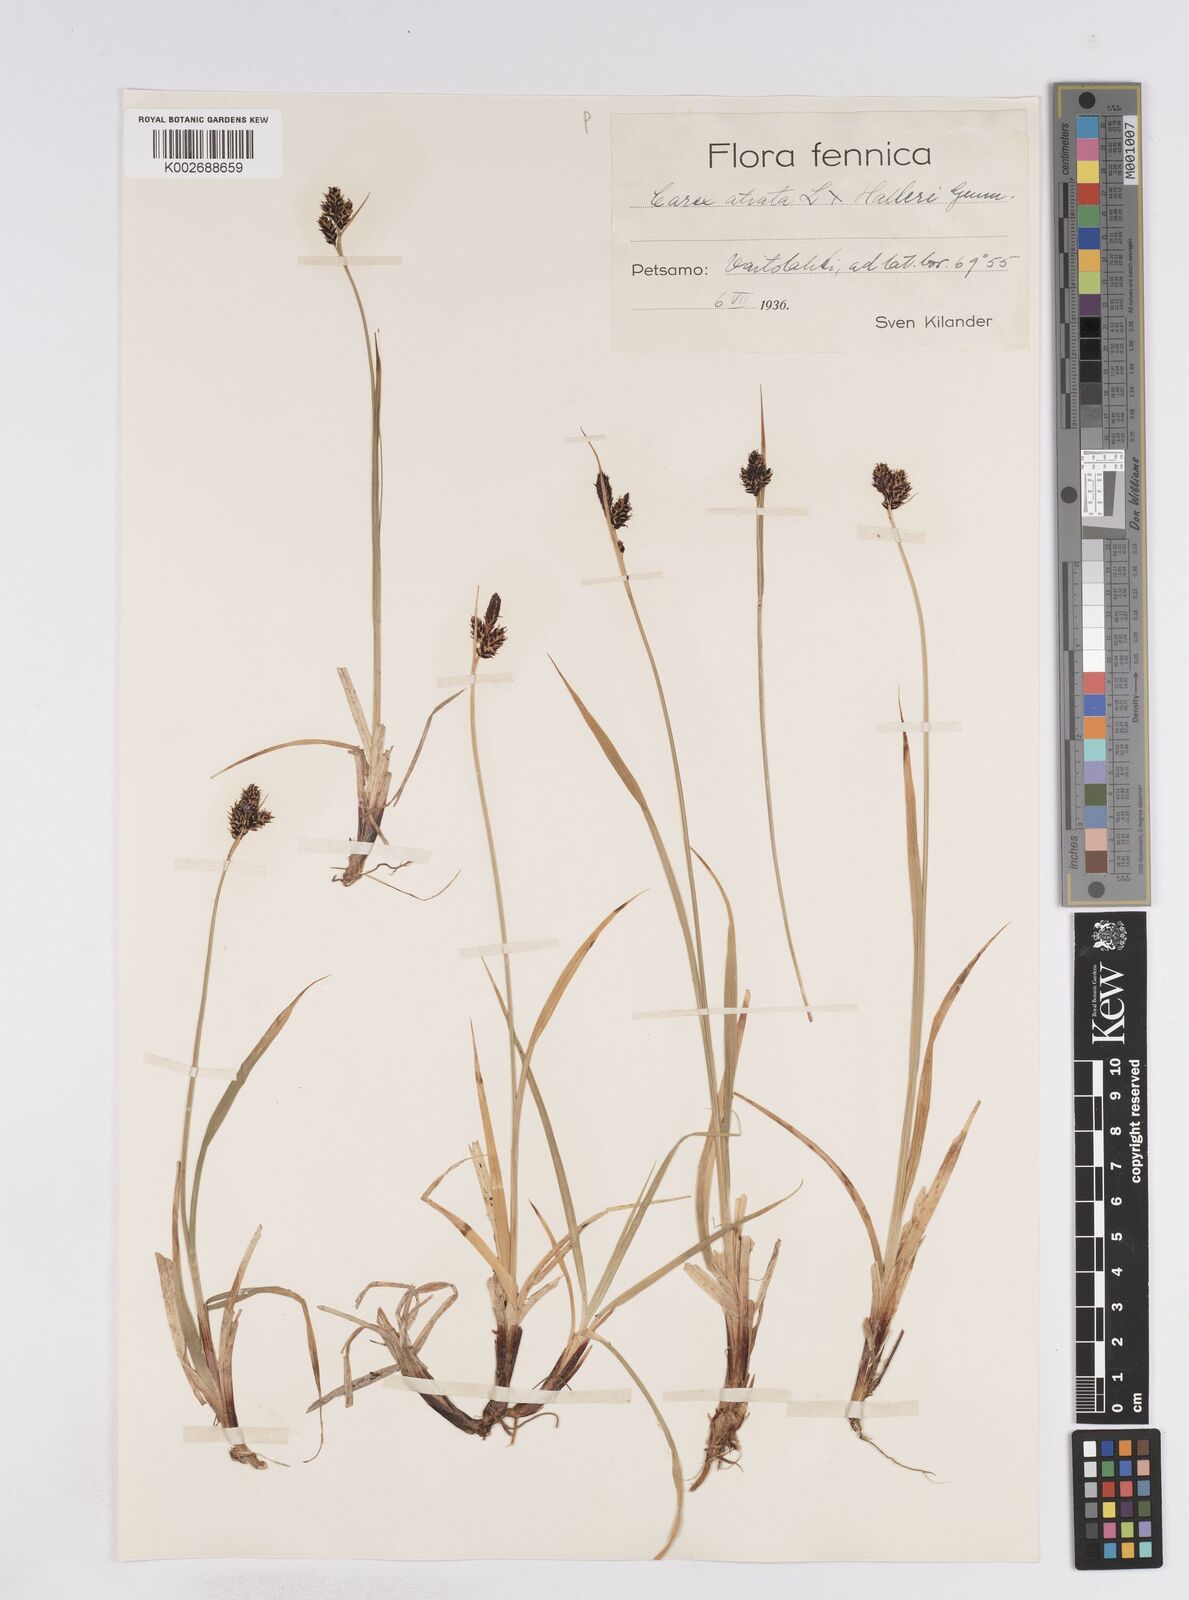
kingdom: Plantae
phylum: Tracheophyta
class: Liliopsida
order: Poales
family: Cyperaceae
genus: Carex
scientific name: Carex norvegica
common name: Close-headed alpine-sedge
